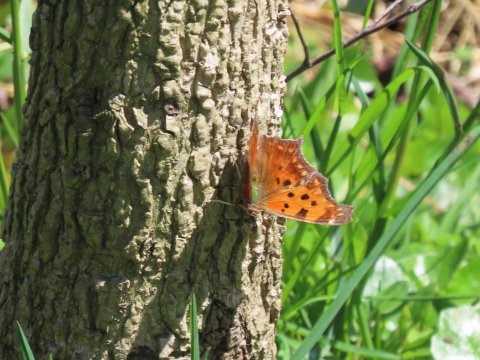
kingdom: Animalia
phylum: Arthropoda
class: Insecta
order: Lepidoptera
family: Nymphalidae
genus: Polygonia
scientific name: Polygonia comma
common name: Eastern Comma
